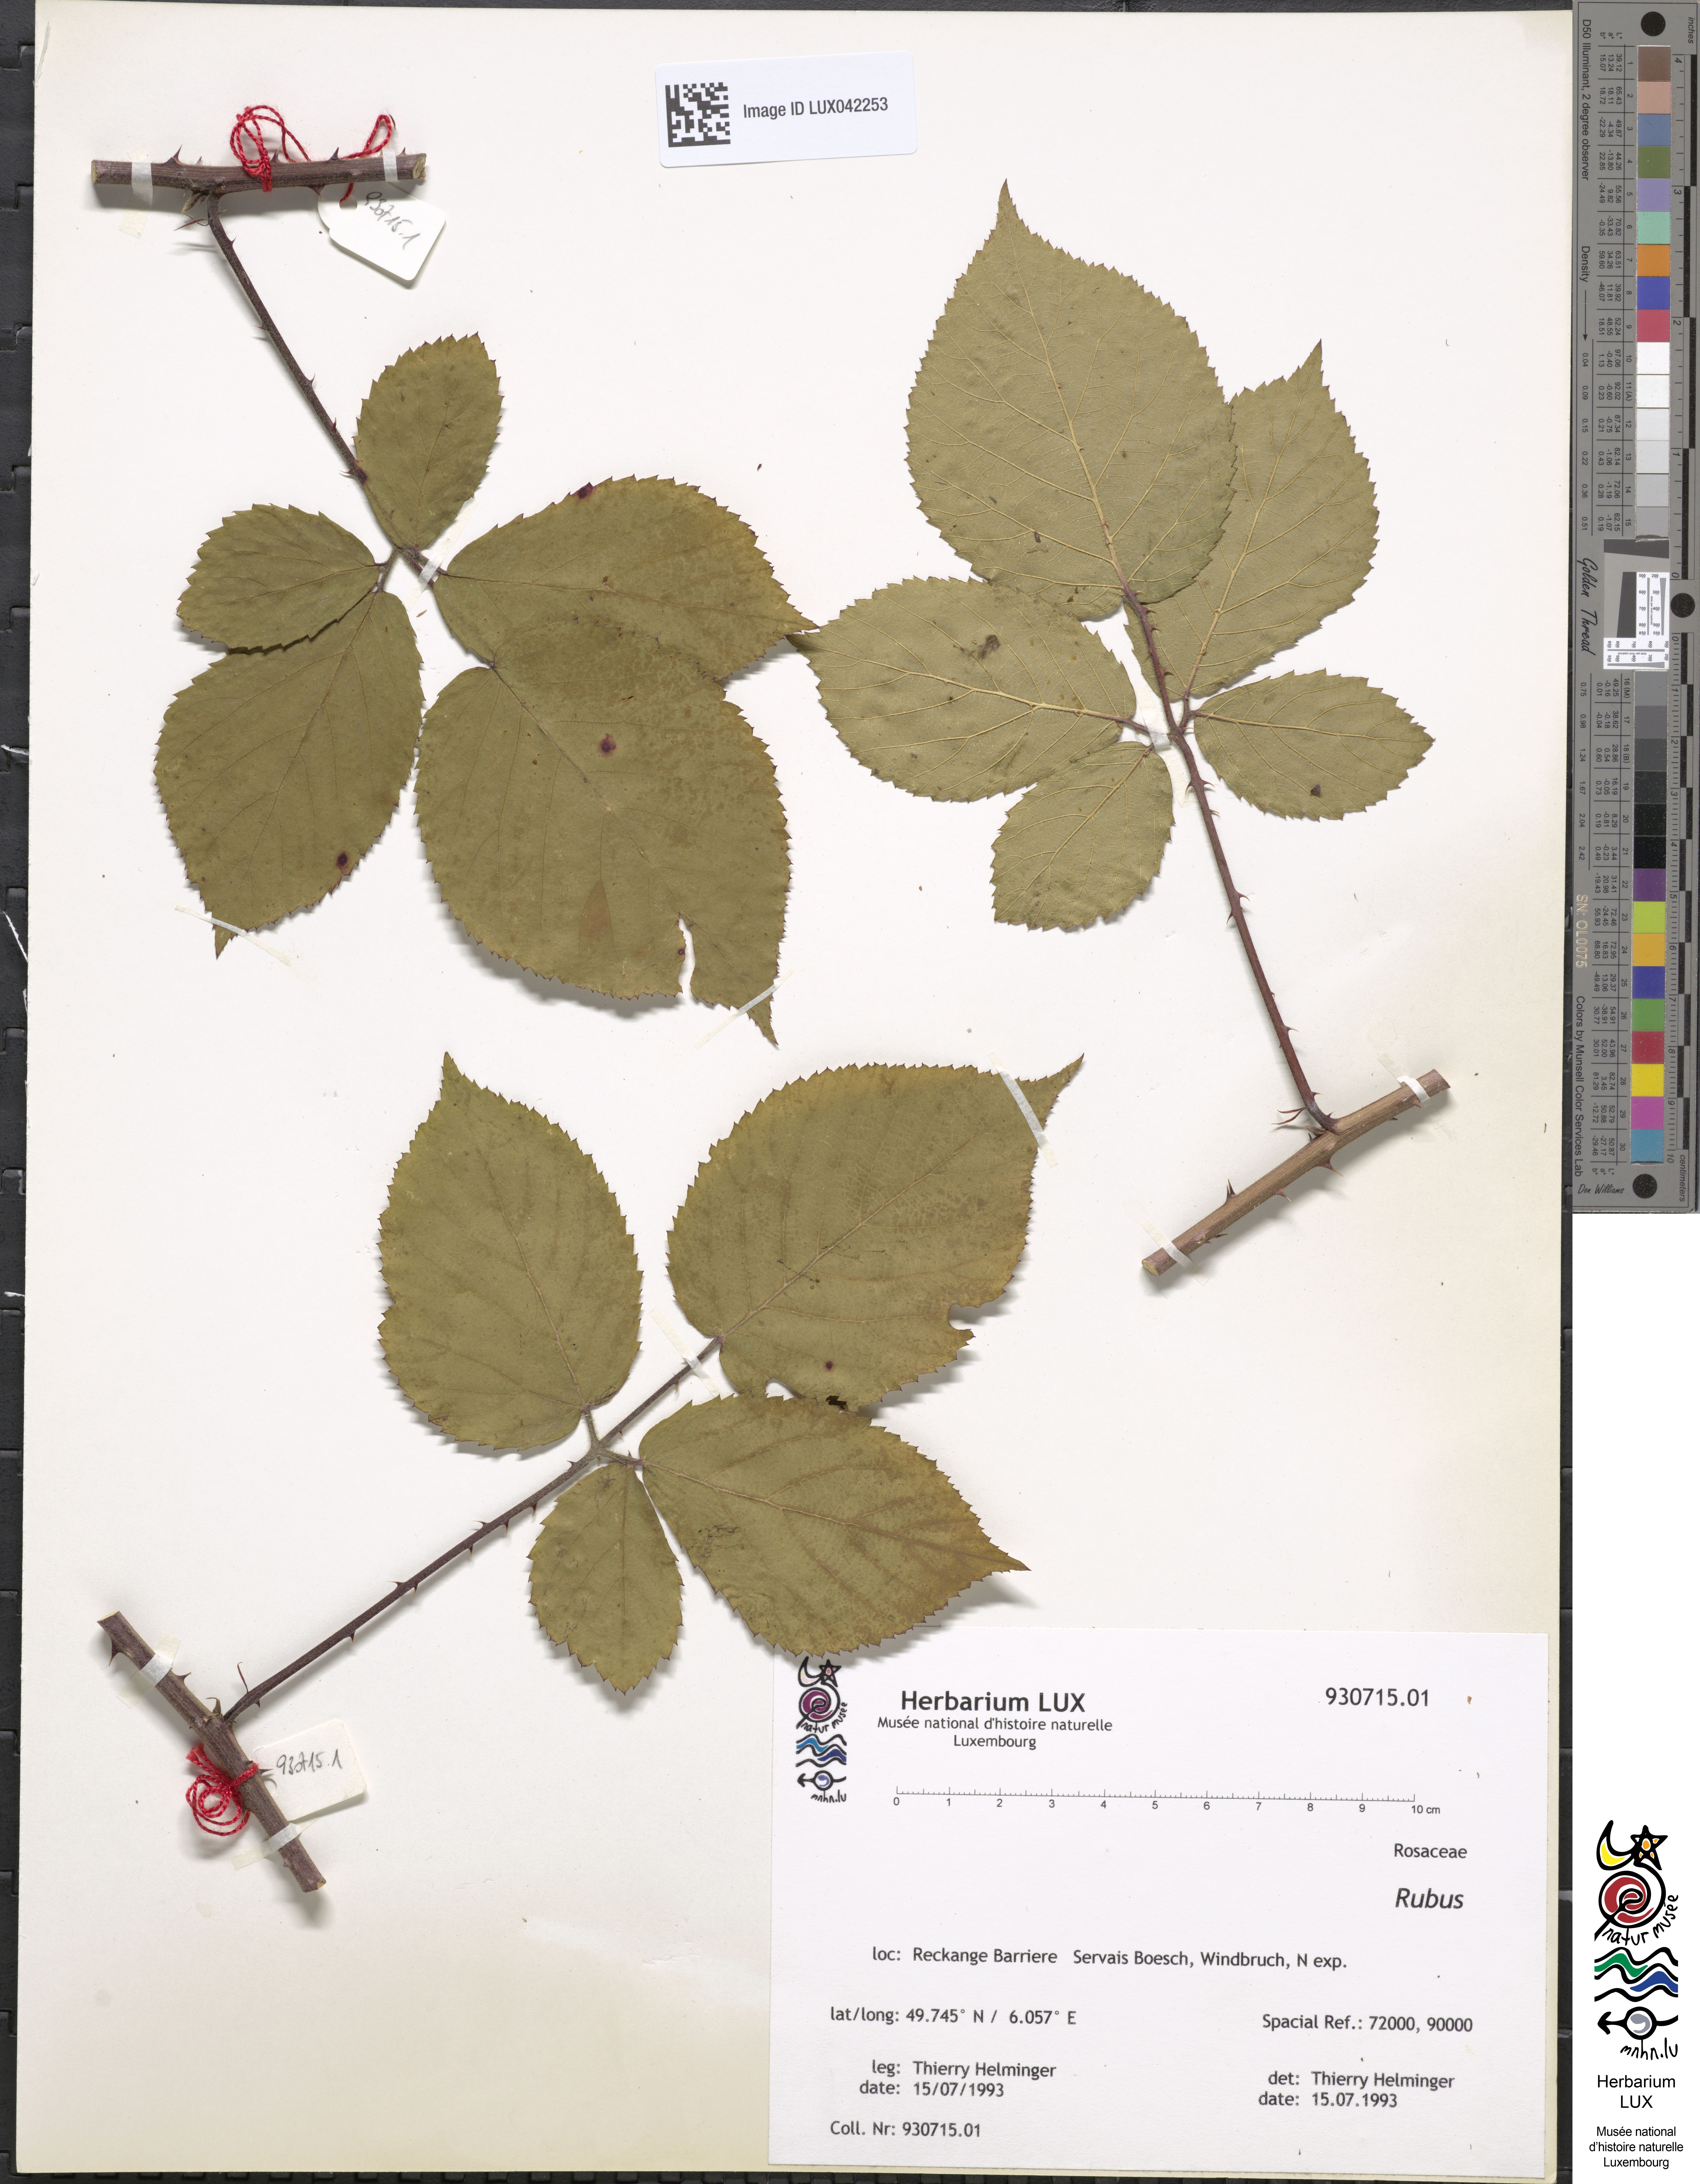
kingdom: Plantae
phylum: Tracheophyta
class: Magnoliopsida
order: Rosales
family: Rosaceae
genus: Rubus
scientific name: Rubus
